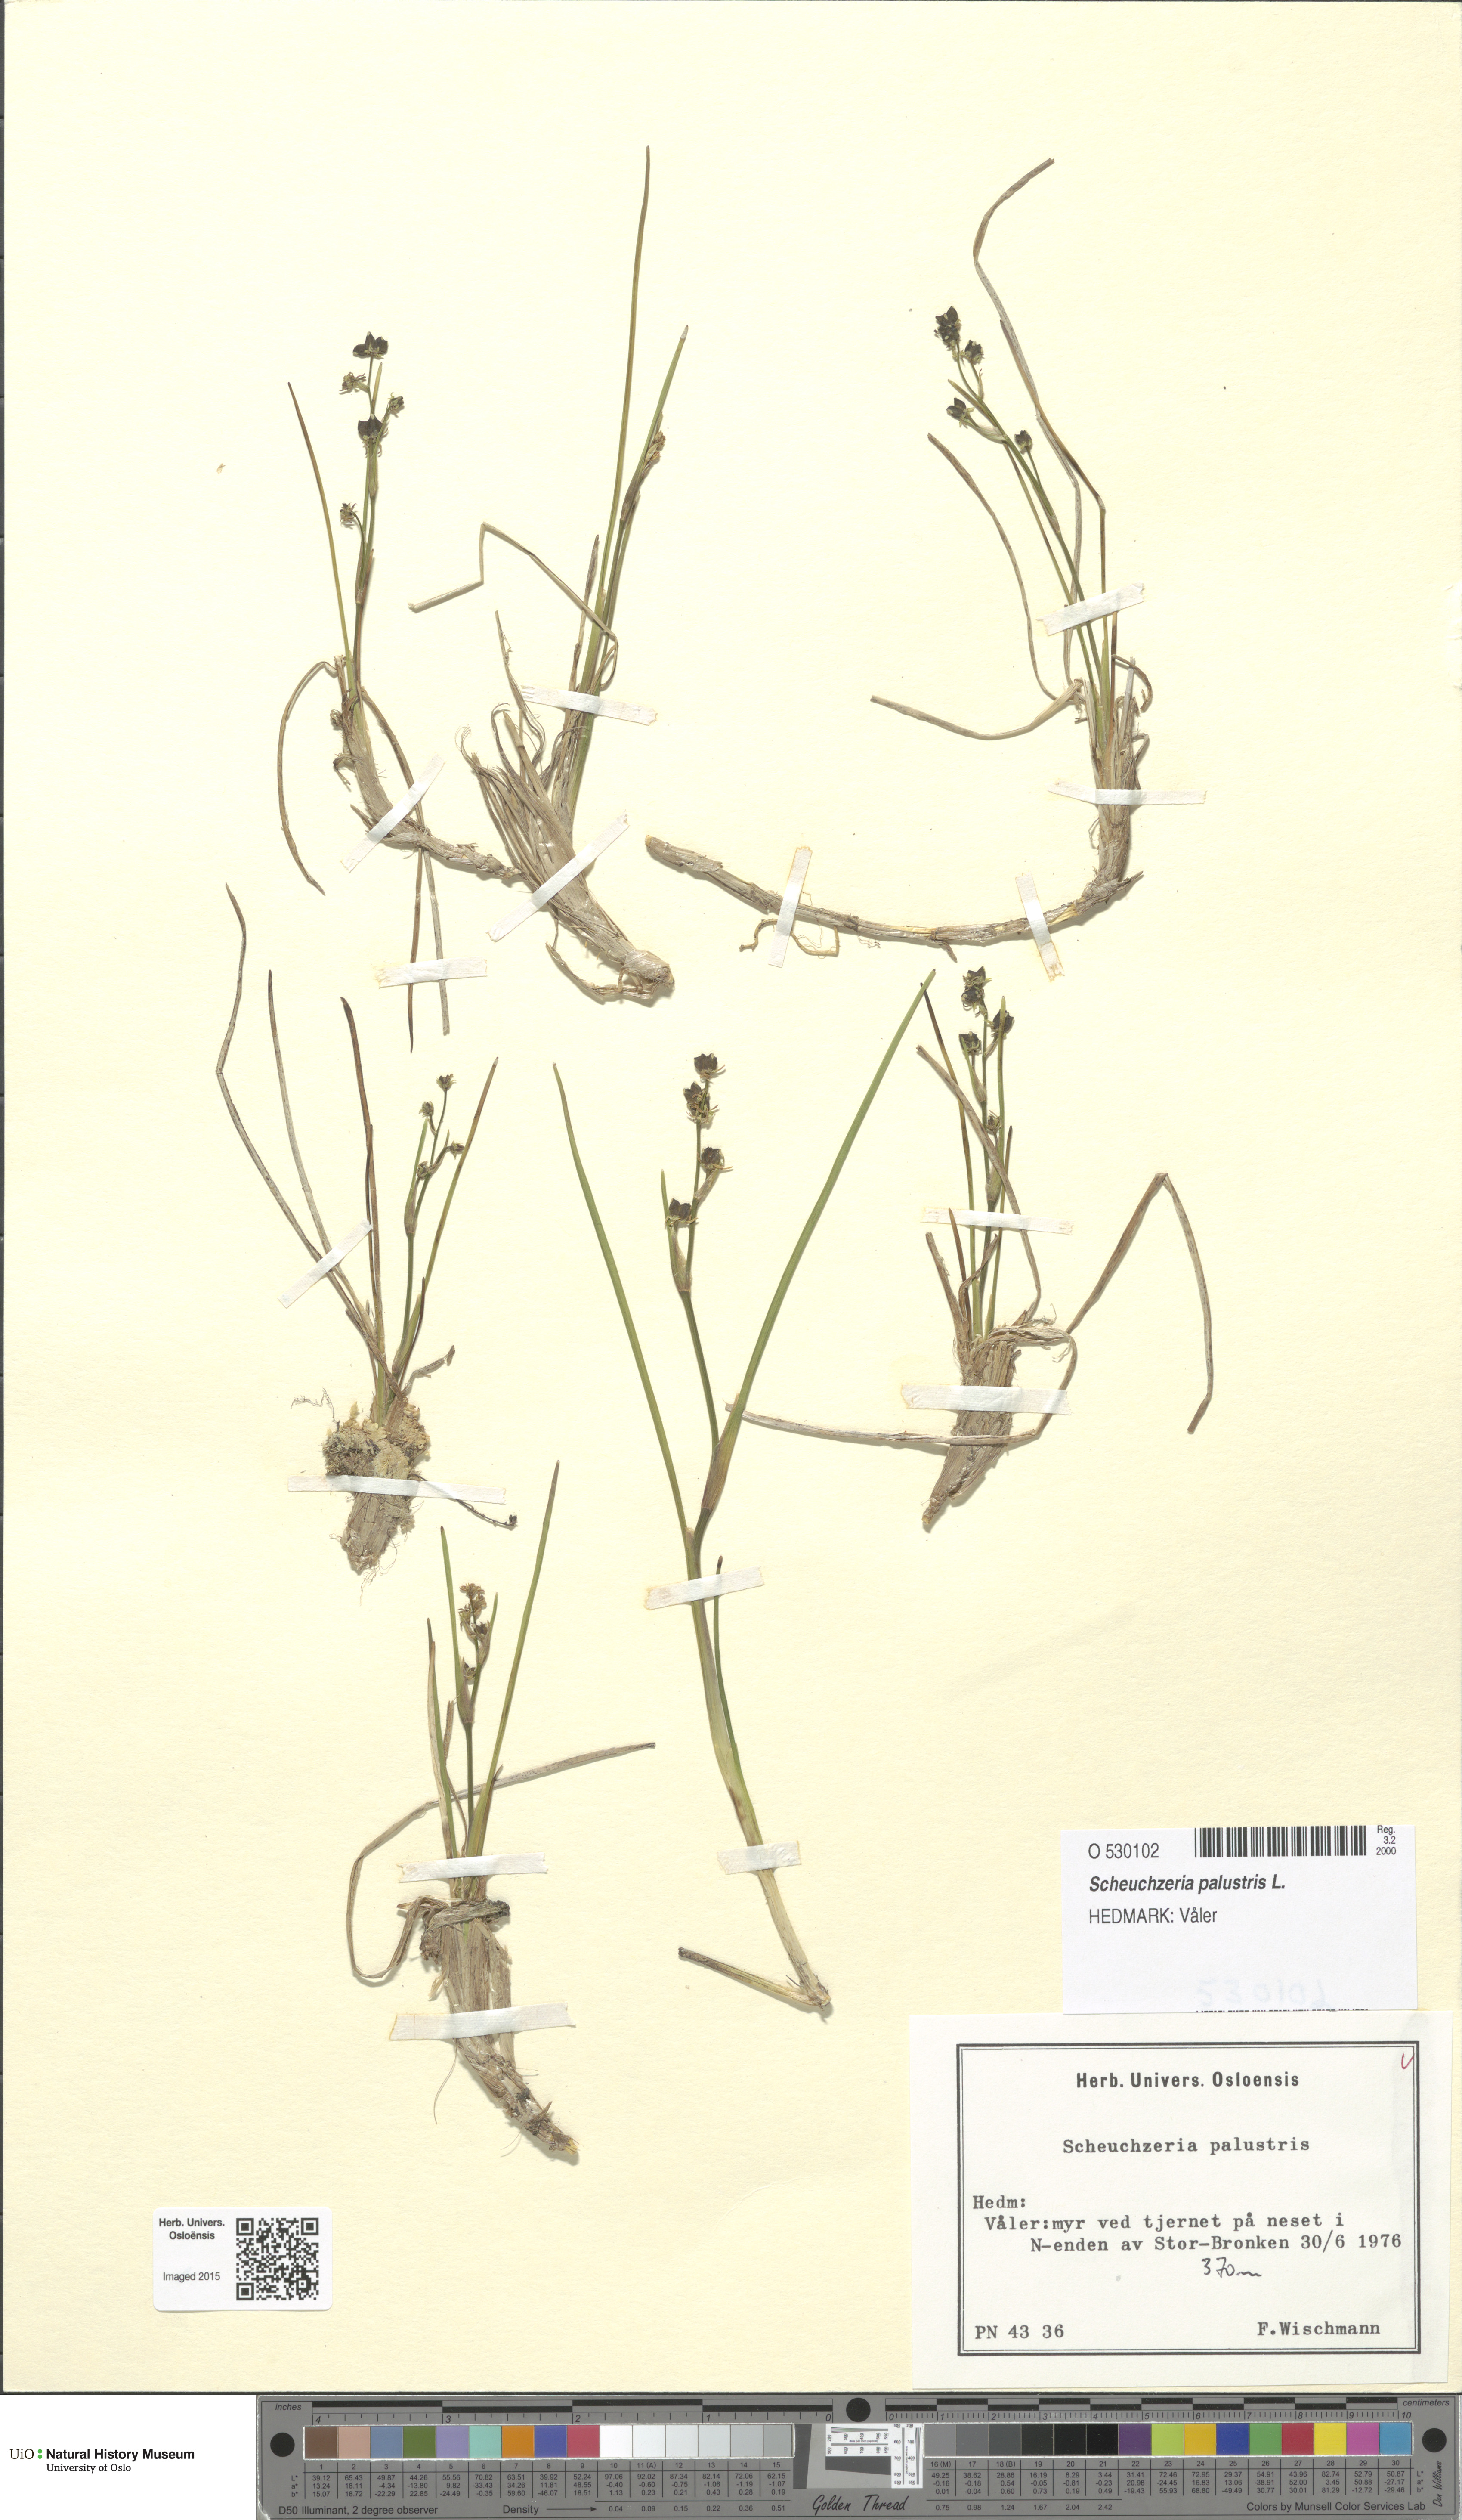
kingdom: Plantae
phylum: Tracheophyta
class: Liliopsida
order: Alismatales
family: Scheuchzeriaceae
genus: Scheuchzeria
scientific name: Scheuchzeria palustris
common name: Rannoch-rush
